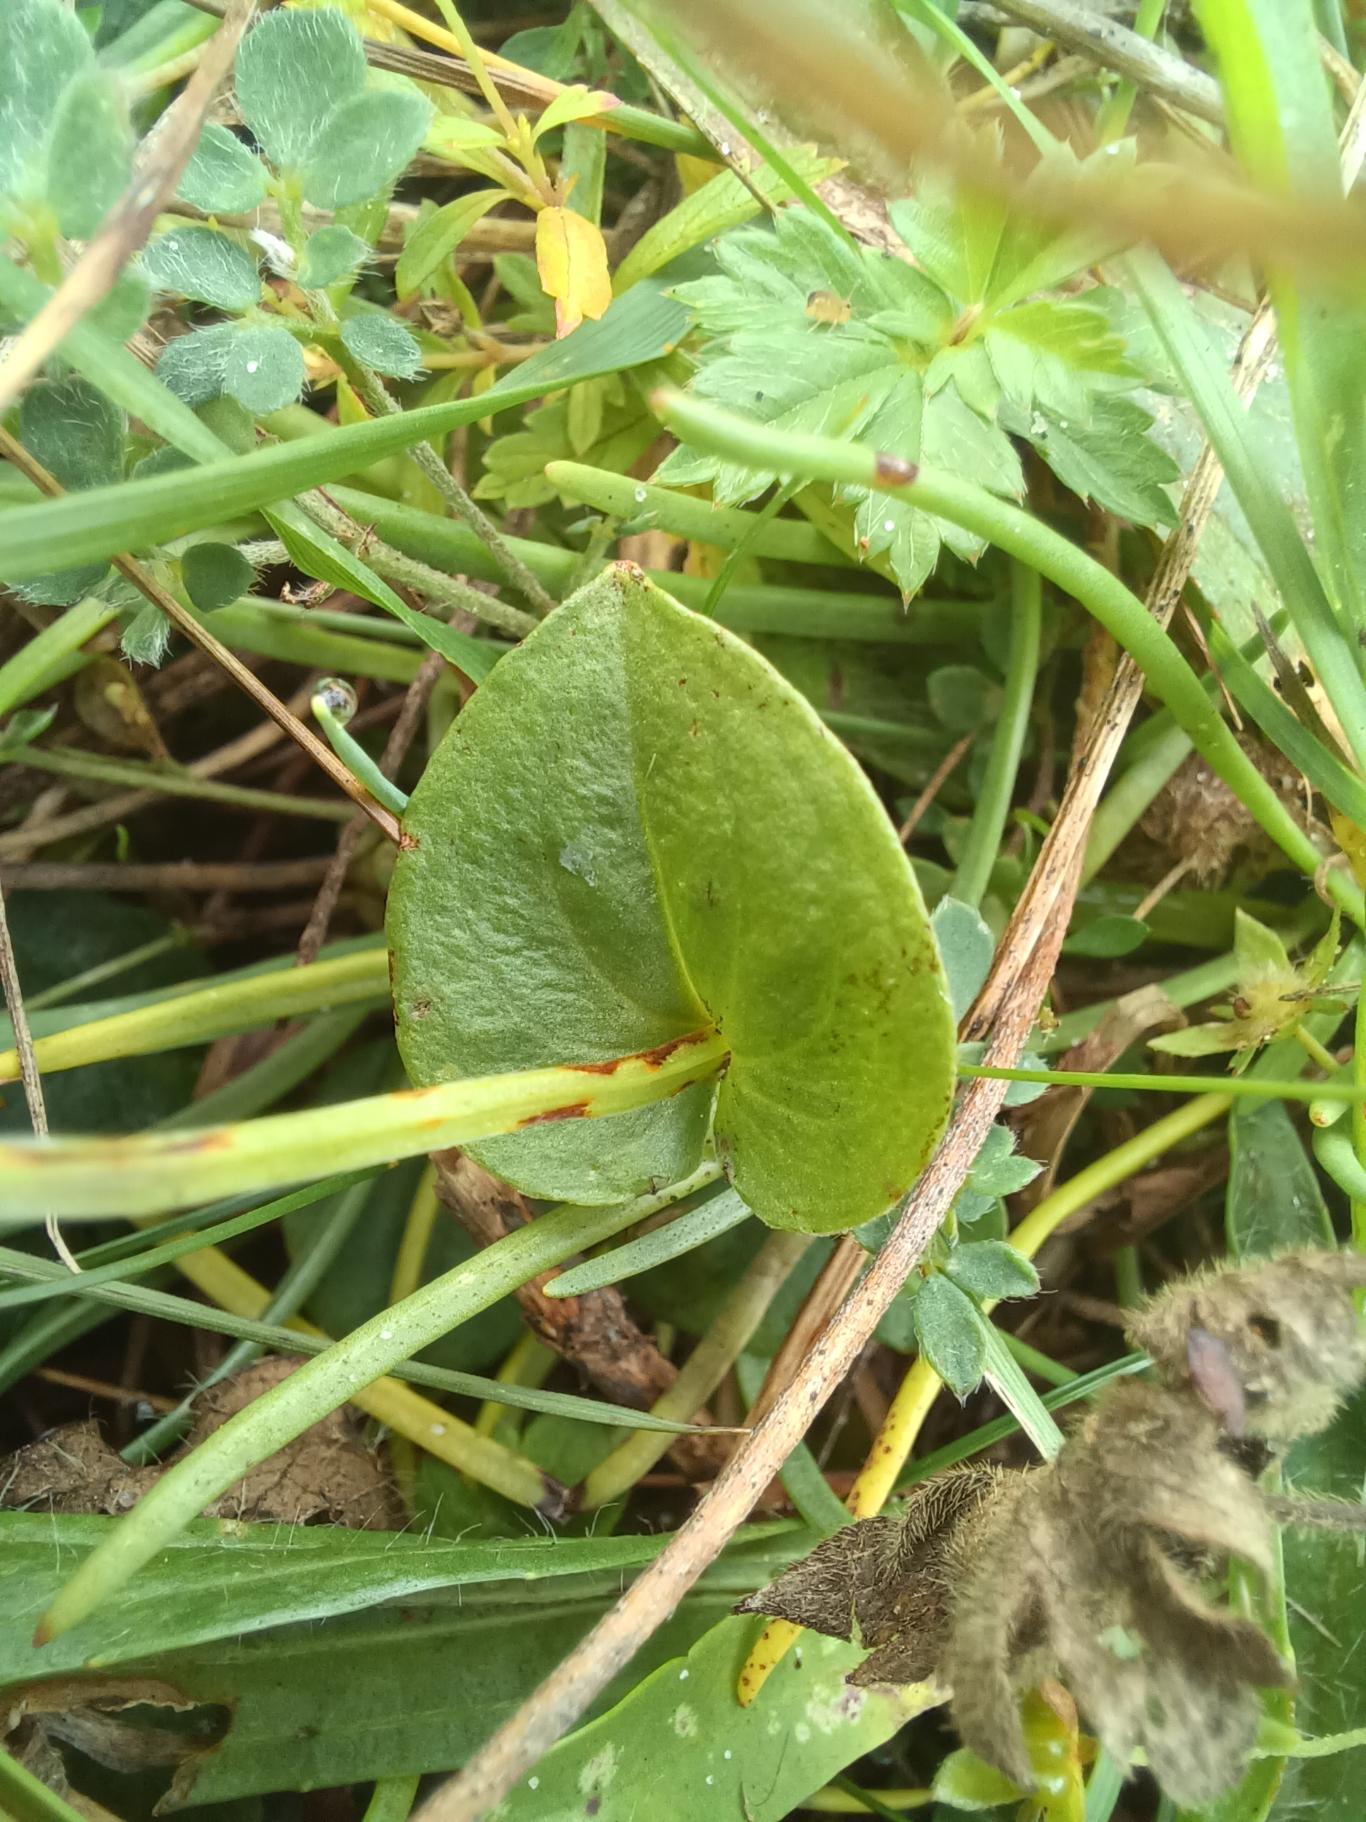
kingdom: Plantae
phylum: Tracheophyta
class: Magnoliopsida
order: Celastrales
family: Parnassiaceae
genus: Parnassia
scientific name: Parnassia palustris
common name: Leverurt
